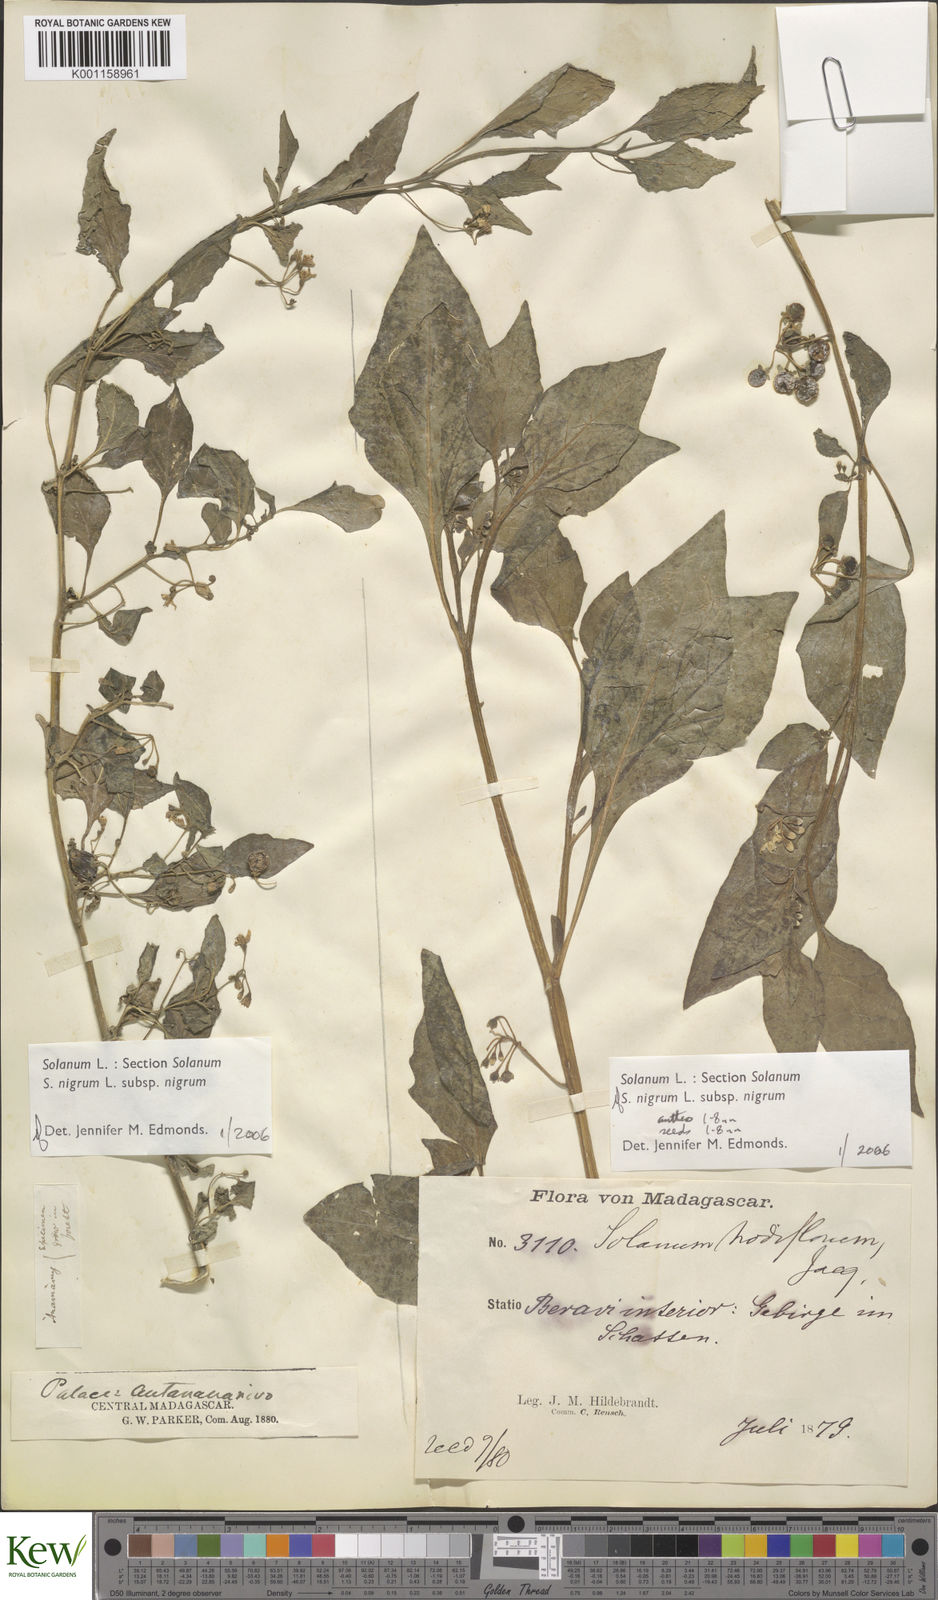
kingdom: Plantae
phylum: Tracheophyta
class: Magnoliopsida
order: Solanales
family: Solanaceae
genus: Solanum
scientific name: Solanum nigrum
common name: Black nightshade
